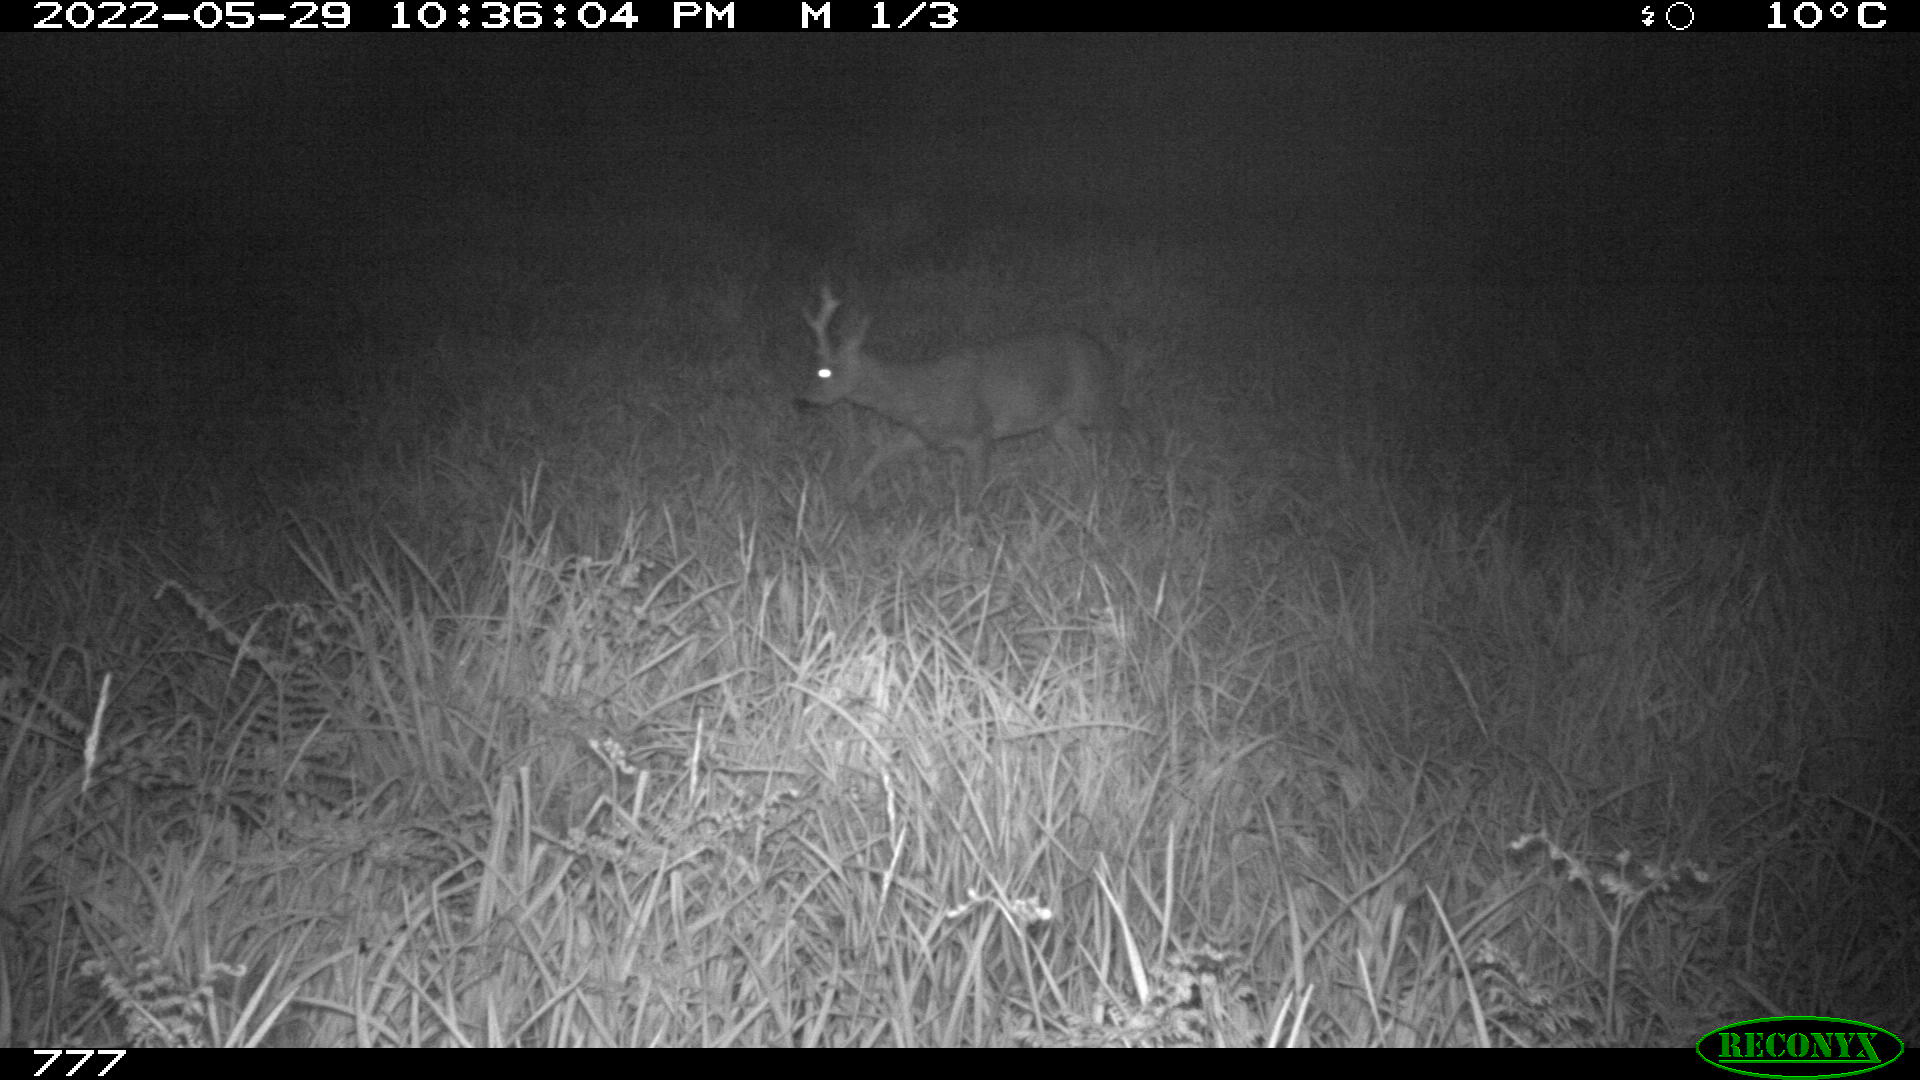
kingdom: Animalia
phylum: Chordata
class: Mammalia
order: Artiodactyla
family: Cervidae
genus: Capreolus
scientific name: Capreolus capreolus
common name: Western roe deer
